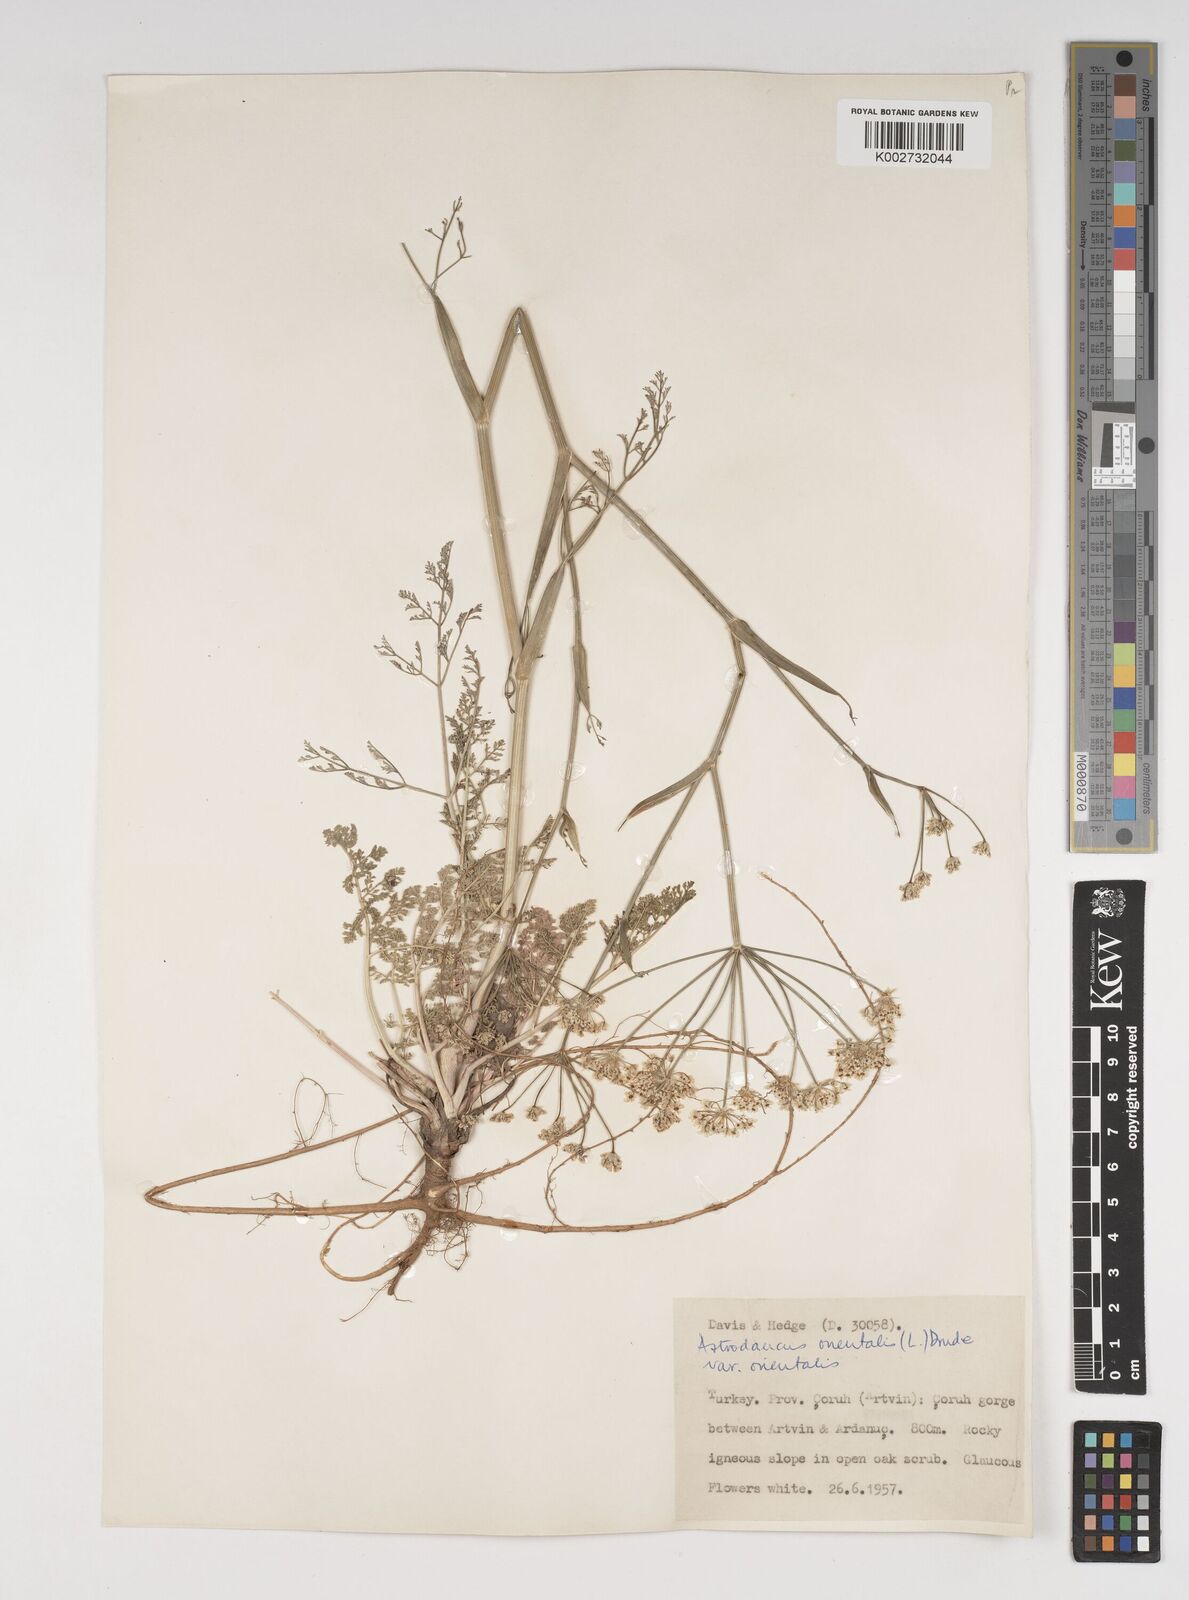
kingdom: Plantae
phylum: Tracheophyta
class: Magnoliopsida
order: Apiales
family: Apiaceae
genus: Astrodaucus
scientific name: Astrodaucus
